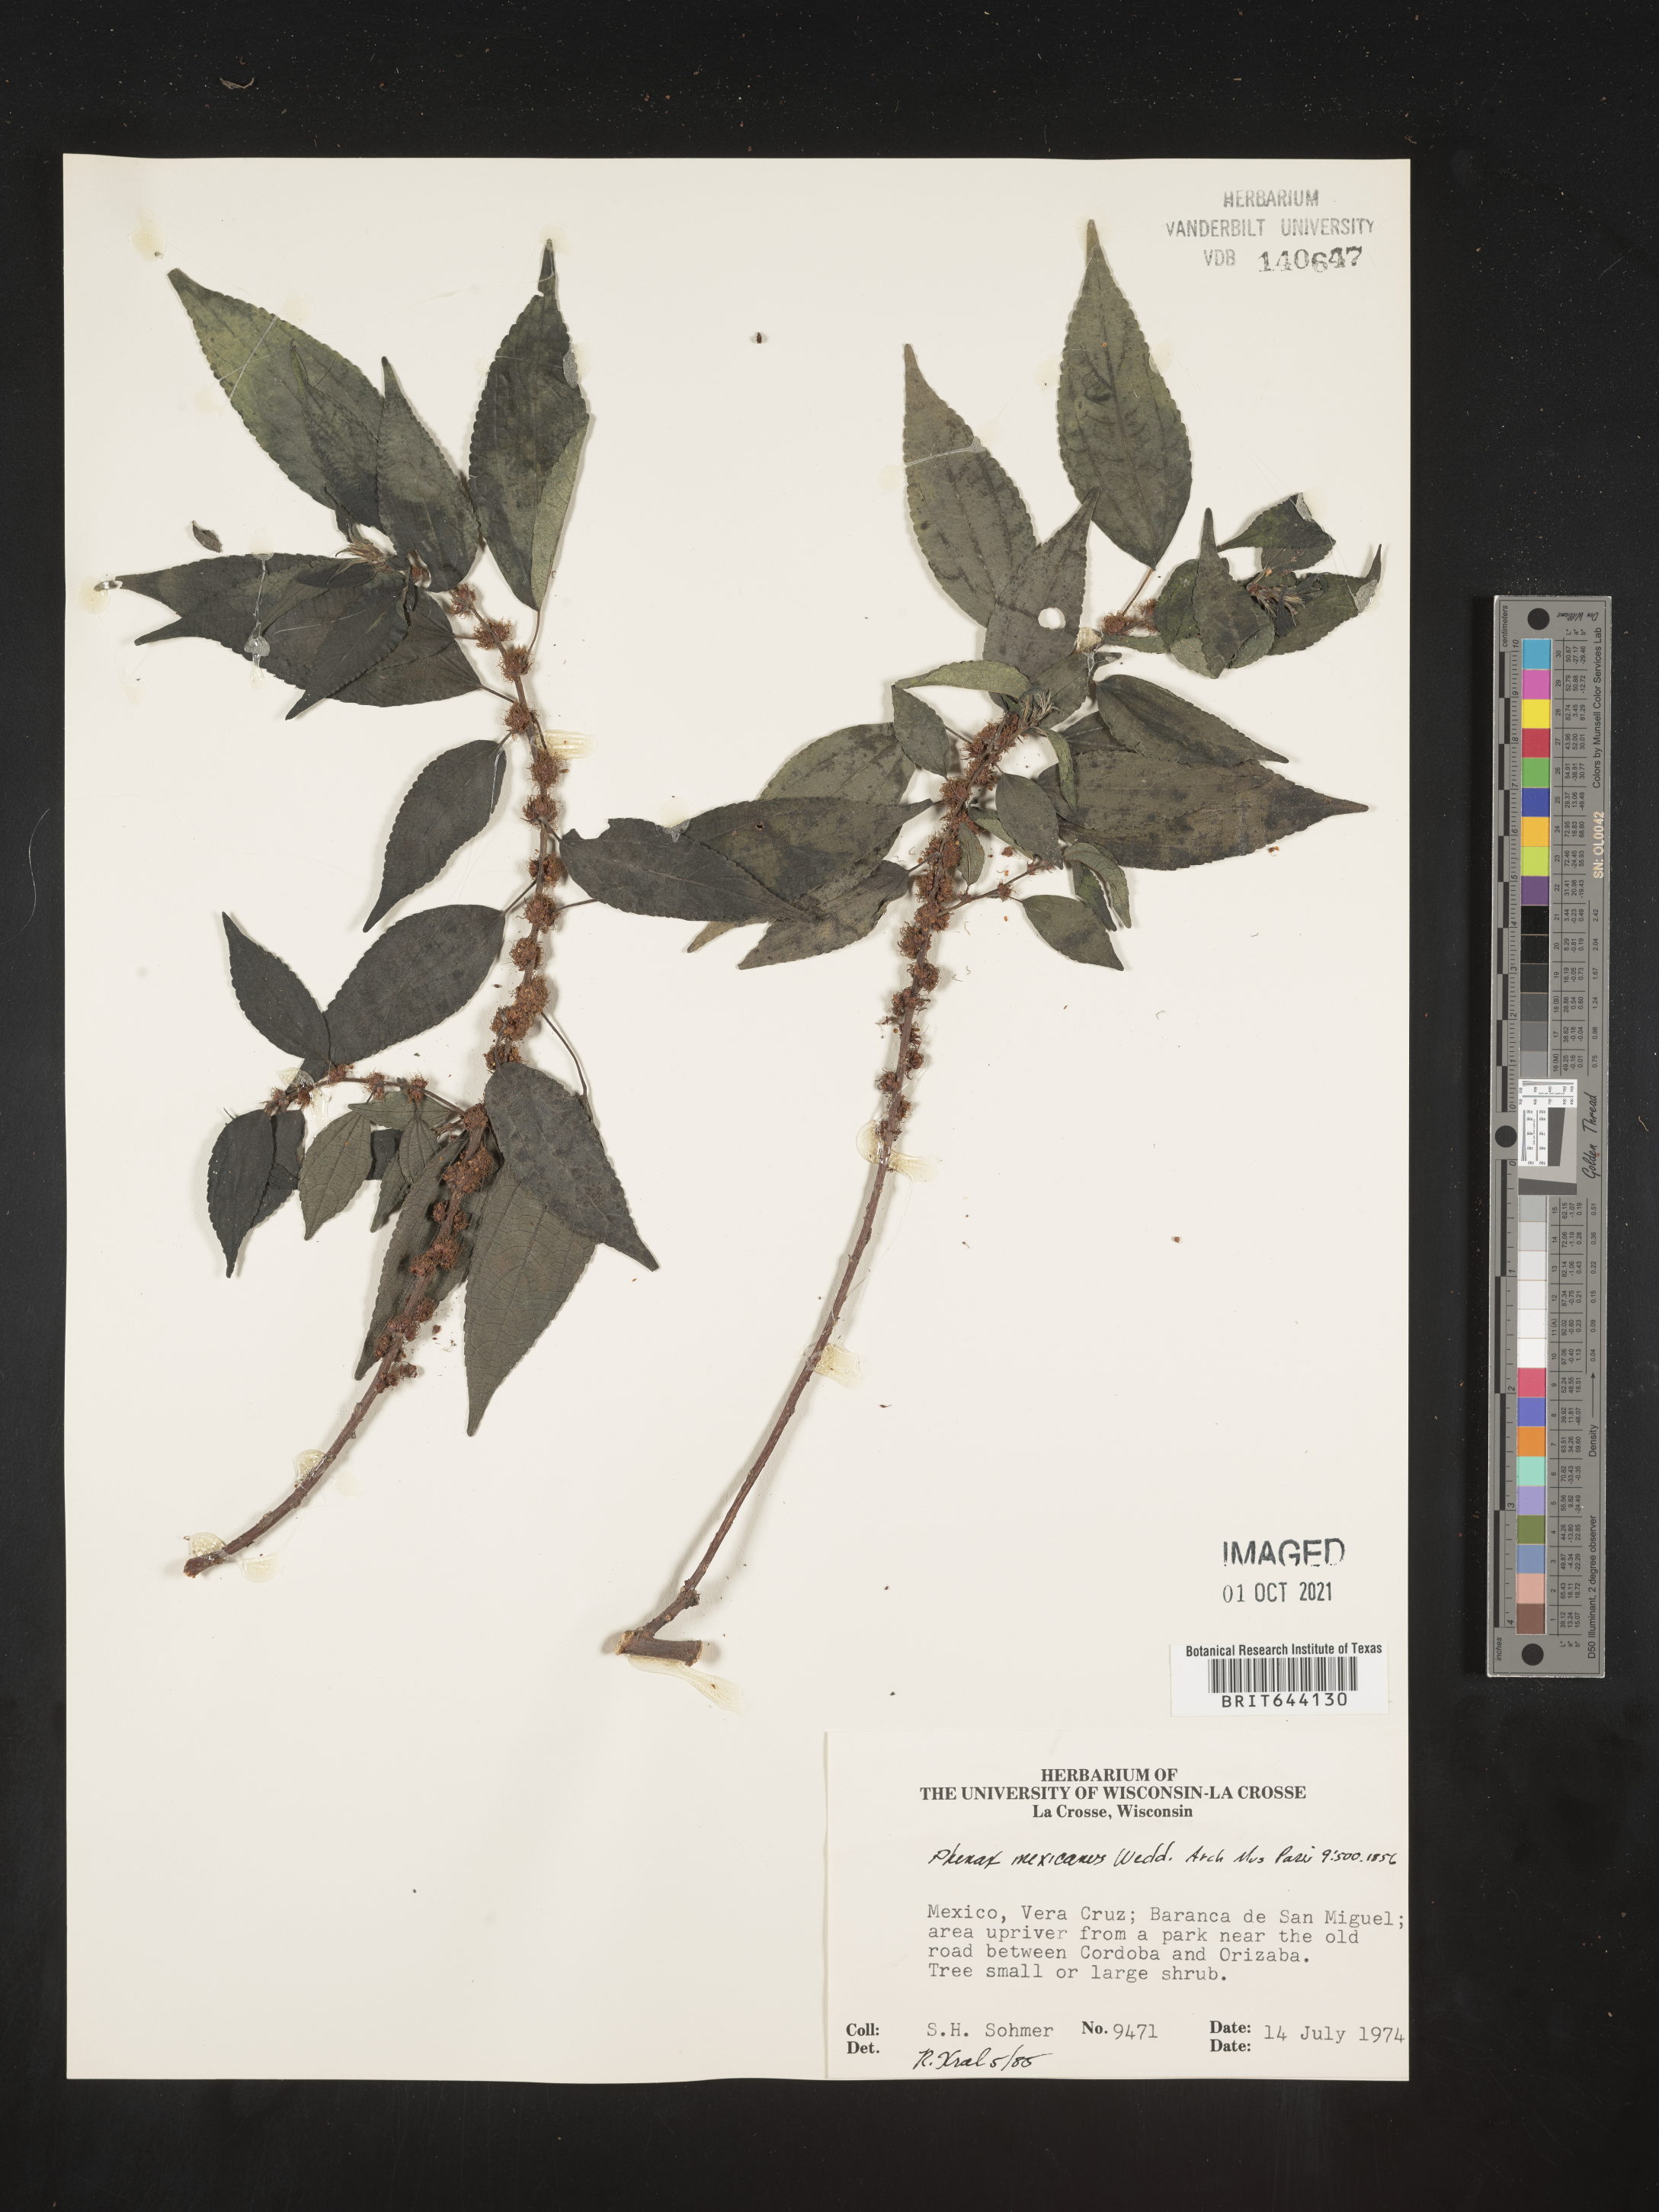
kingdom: Plantae
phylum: Tracheophyta
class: Magnoliopsida
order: Rosales
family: Urticaceae
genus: Phenax
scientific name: Phenax
